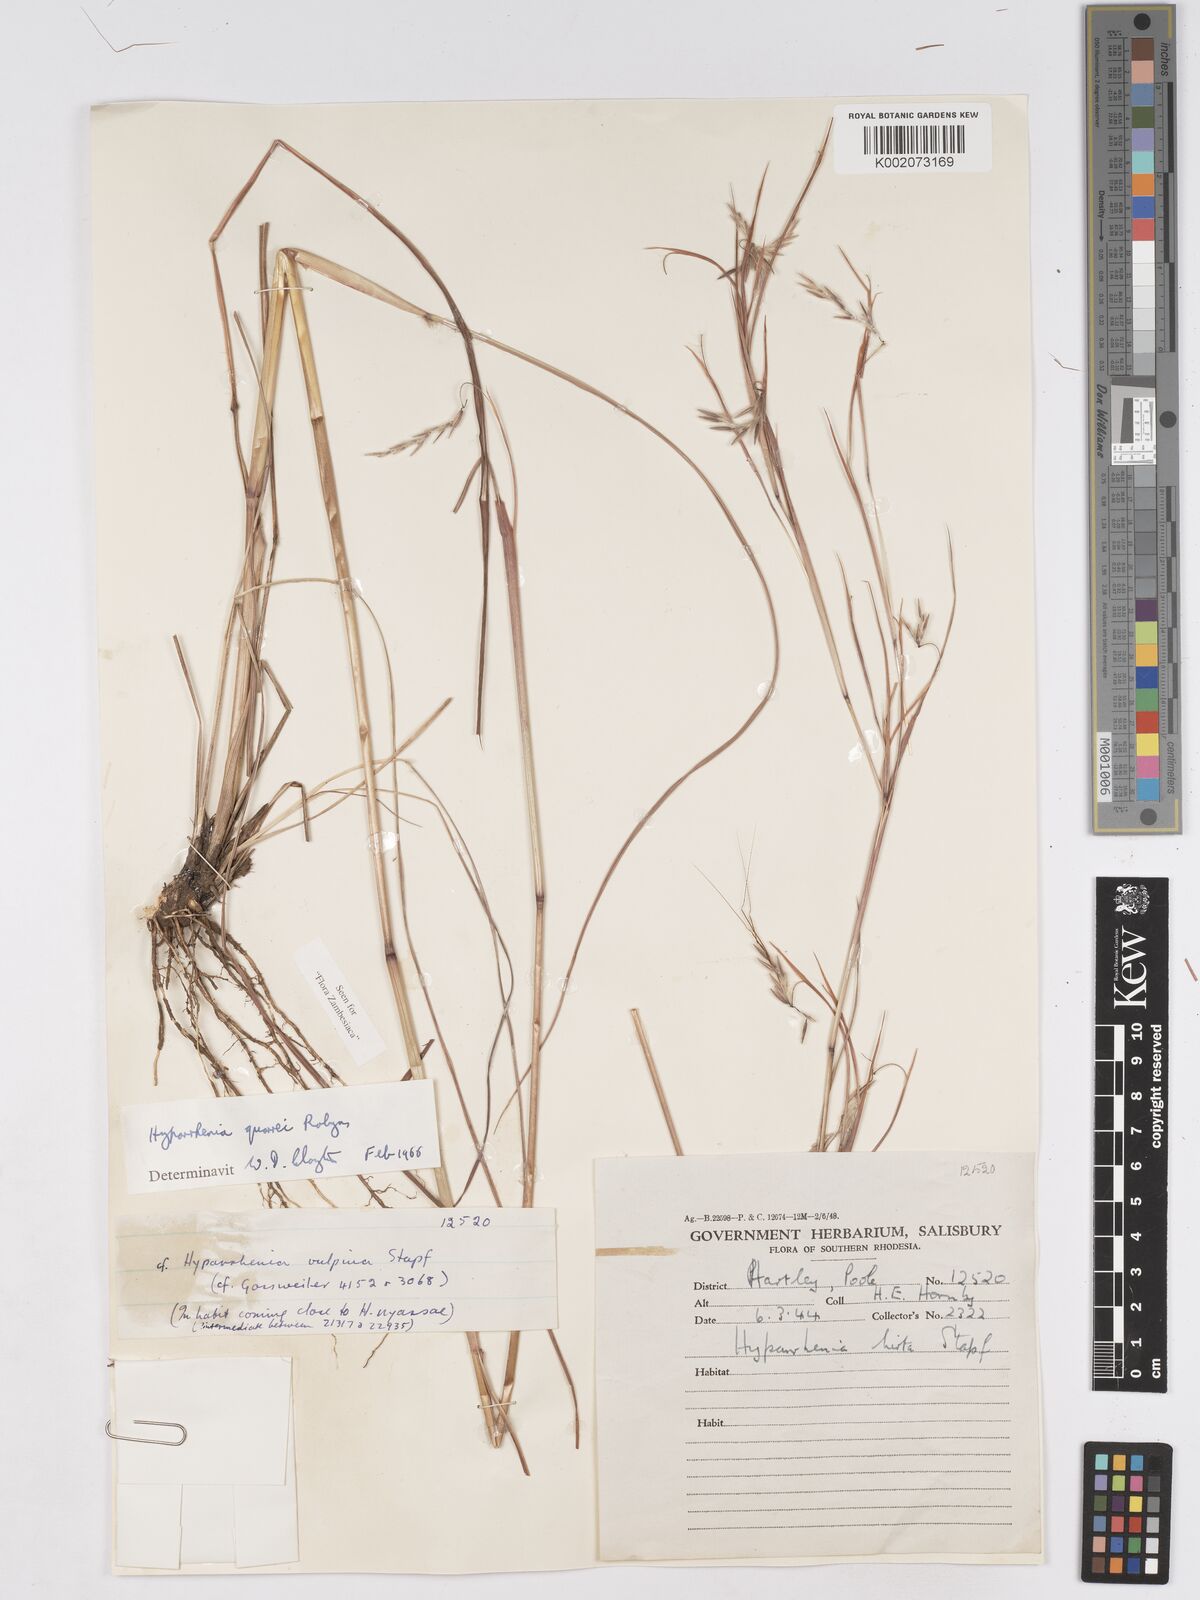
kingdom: Plantae
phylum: Tracheophyta
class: Liliopsida
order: Poales
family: Poaceae
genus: Hyparrhenia
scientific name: Hyparrhenia quarrei
